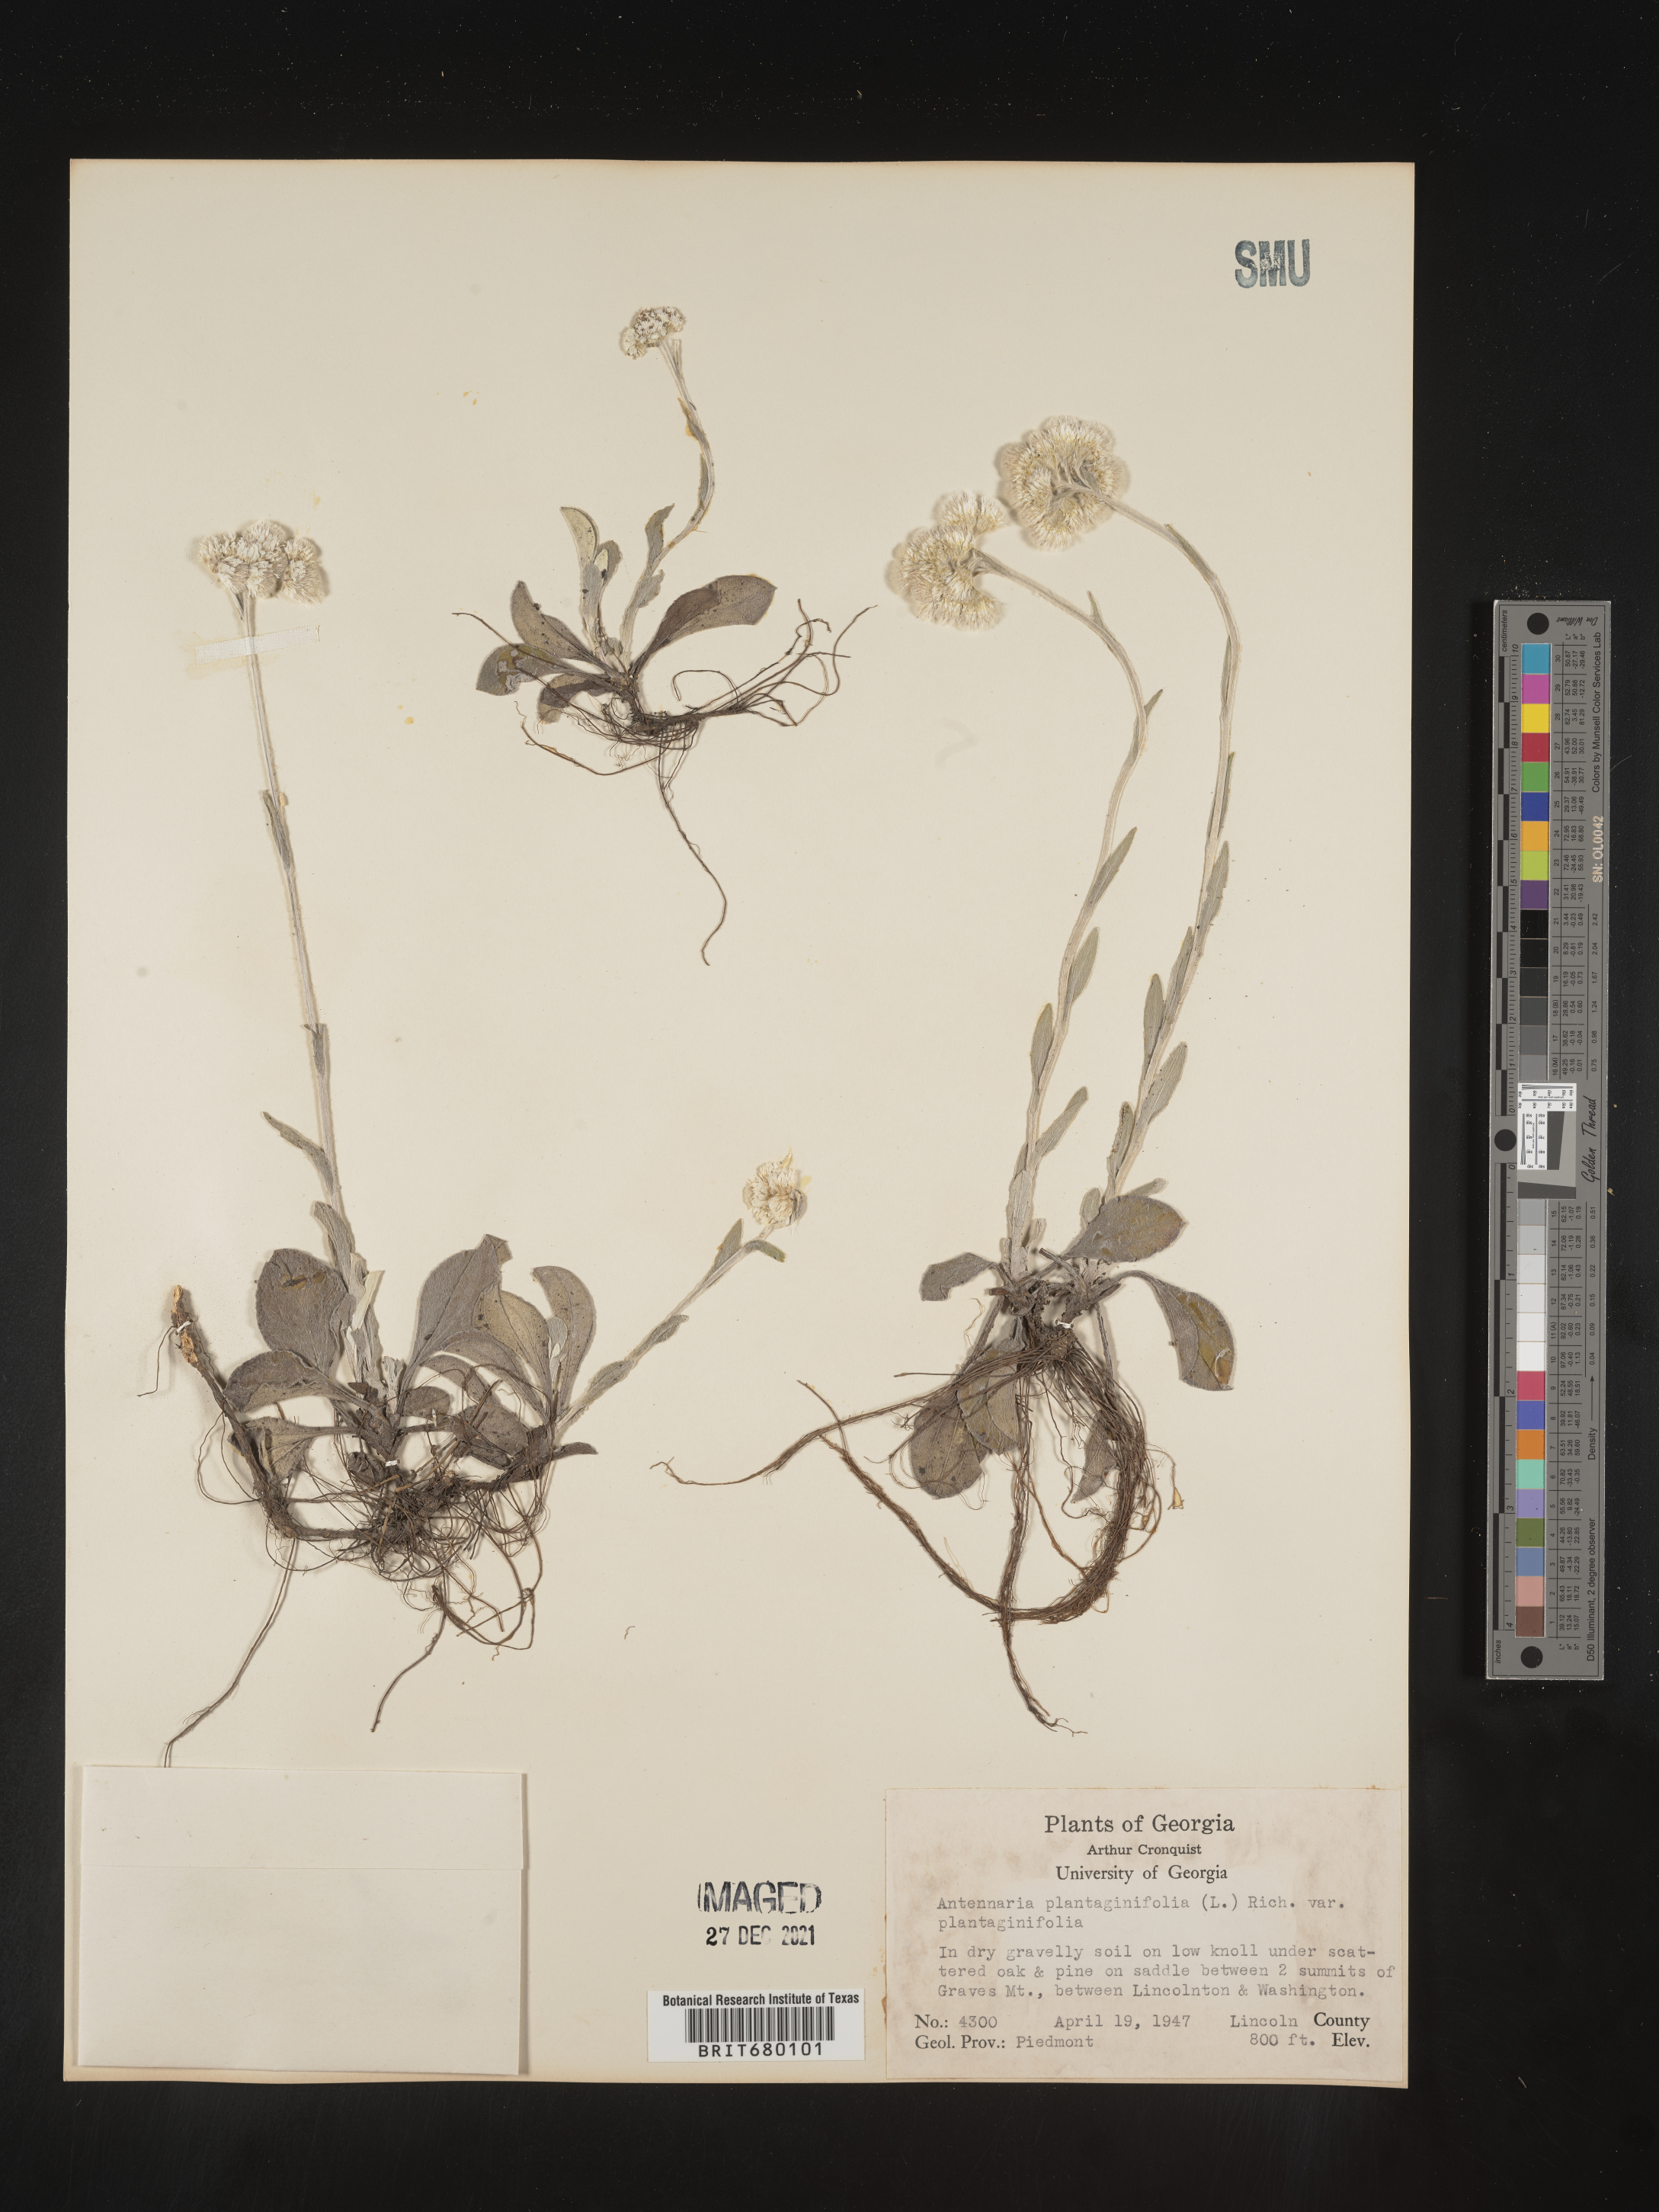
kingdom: Plantae
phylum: Tracheophyta
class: Magnoliopsida
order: Asterales
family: Asteraceae
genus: Antennaria
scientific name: Antennaria plantaginifolia
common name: Plantain-leaved pussytoes
